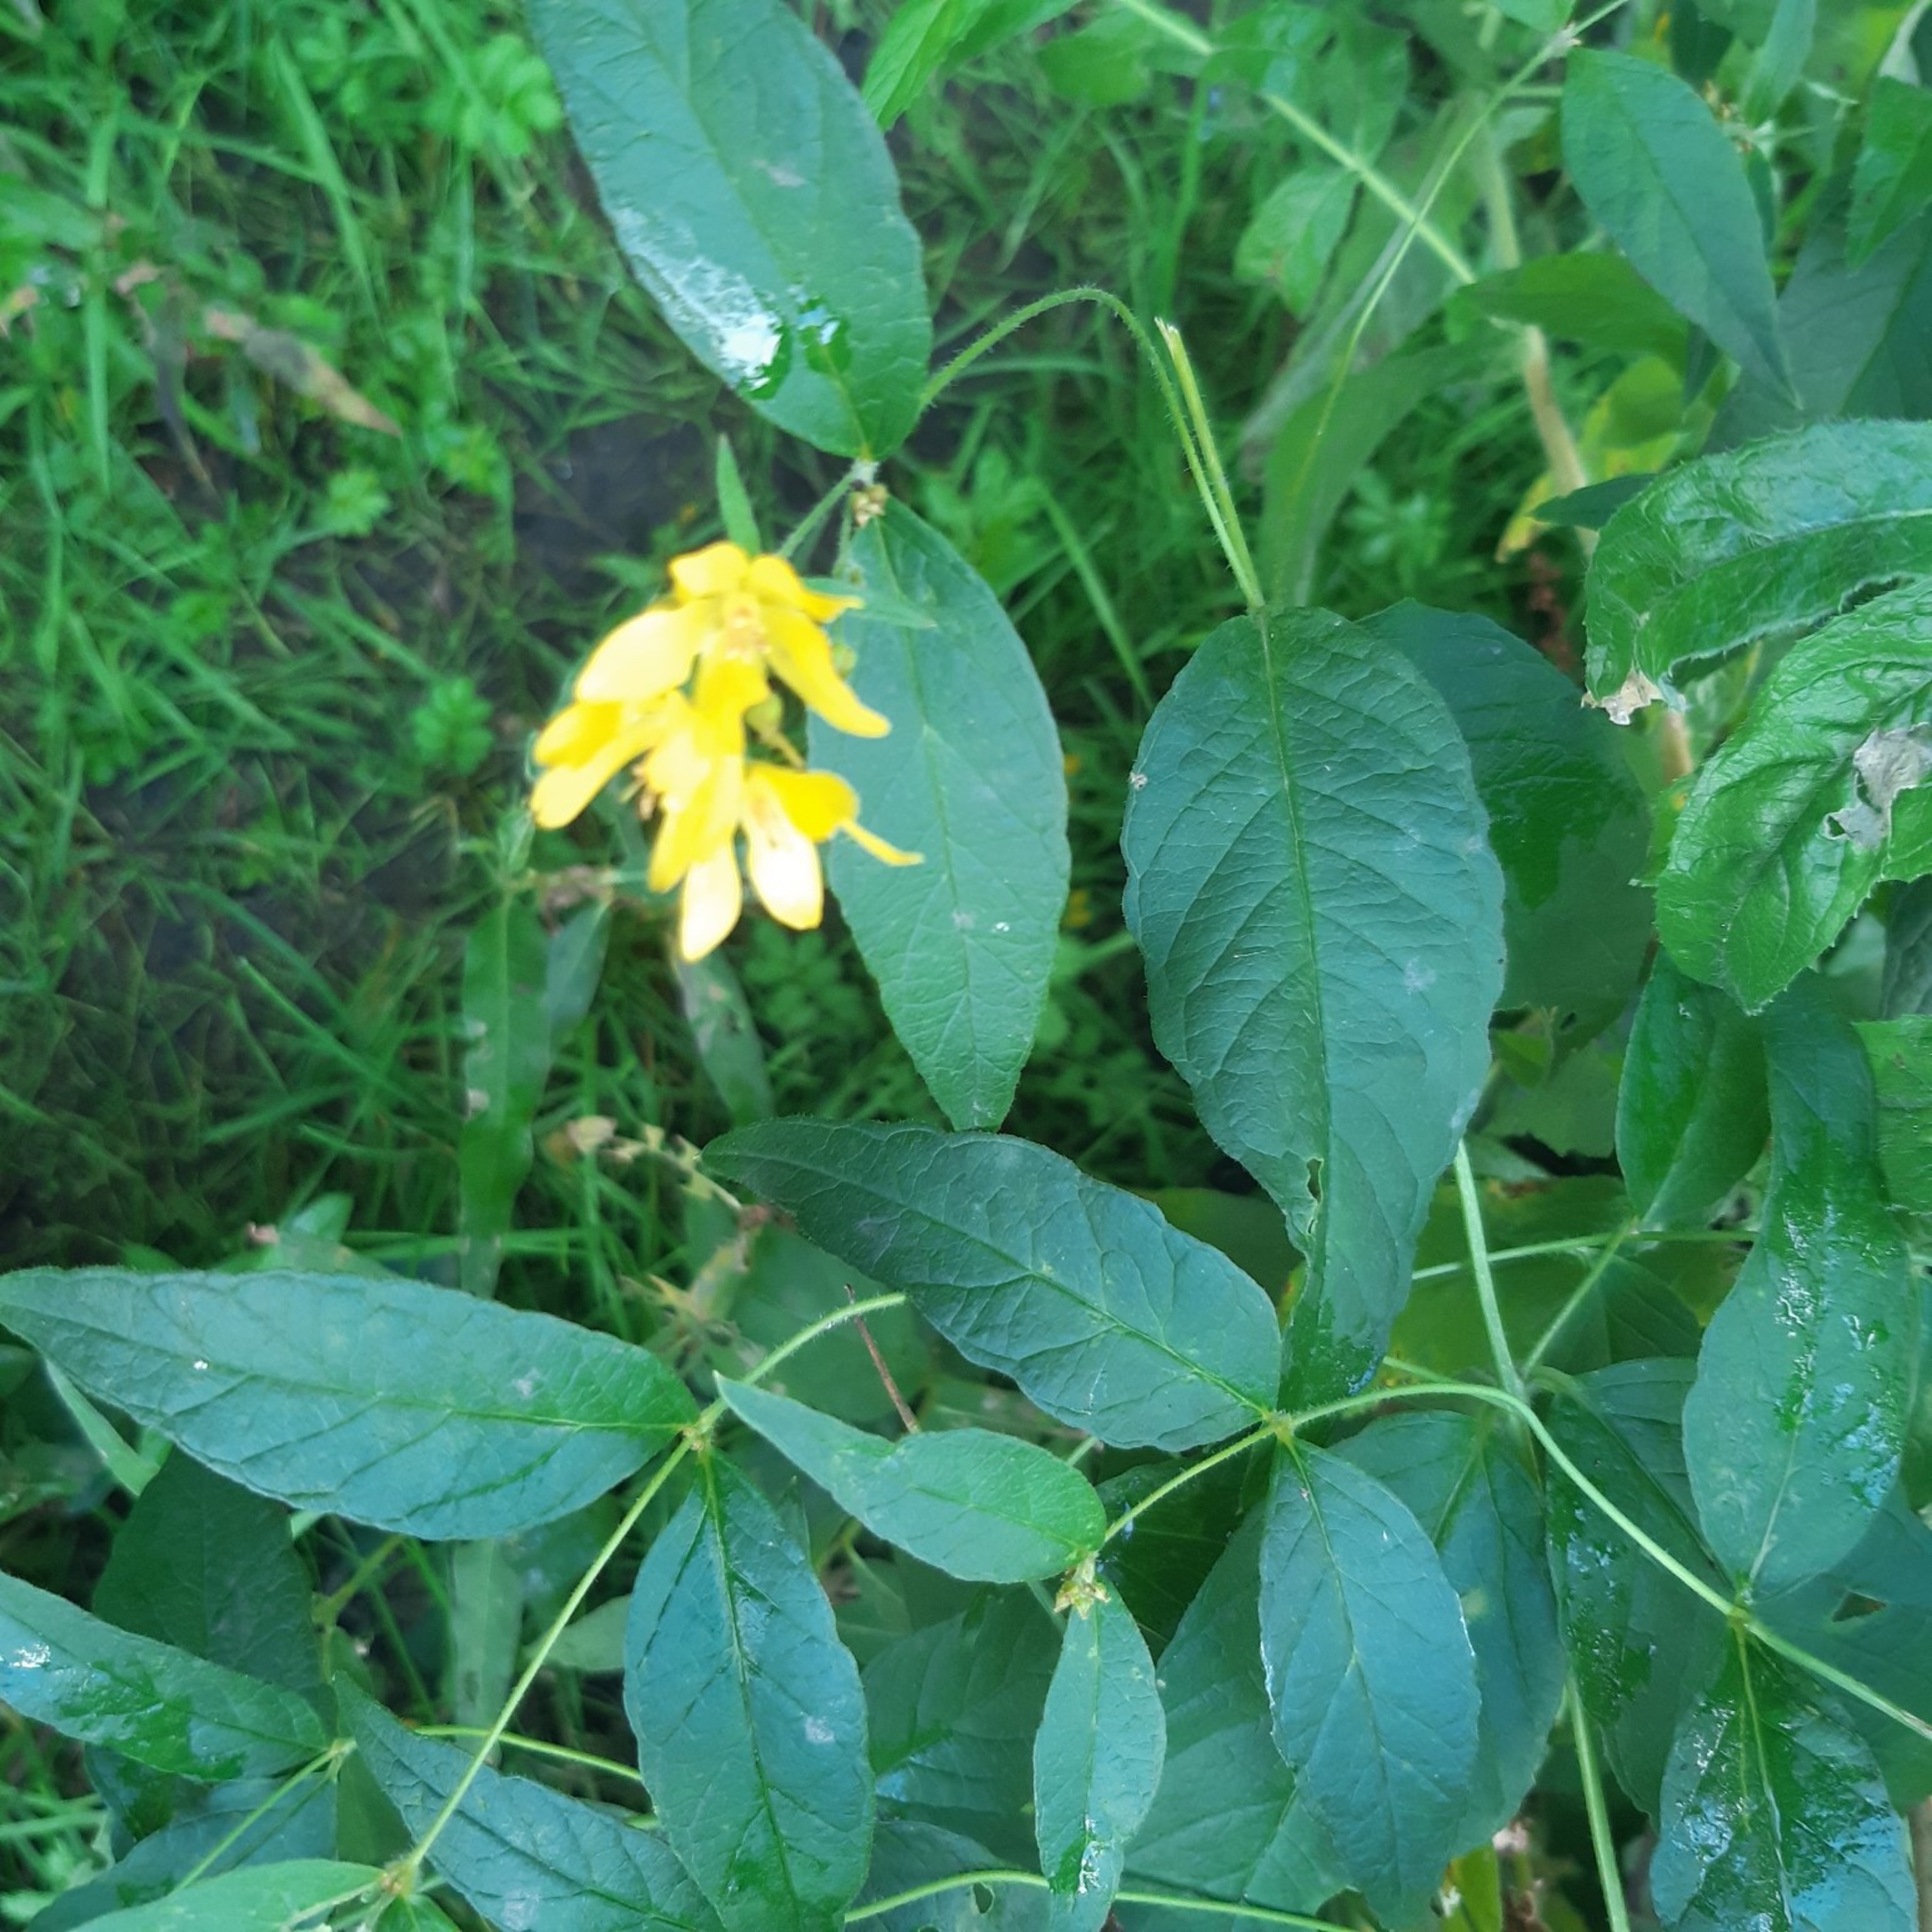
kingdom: Plantae
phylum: Tracheophyta
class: Magnoliopsida
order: Ericales
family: Primulaceae
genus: Lysimachia
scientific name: Lysimachia vulgaris
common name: Almindelig fredløs
